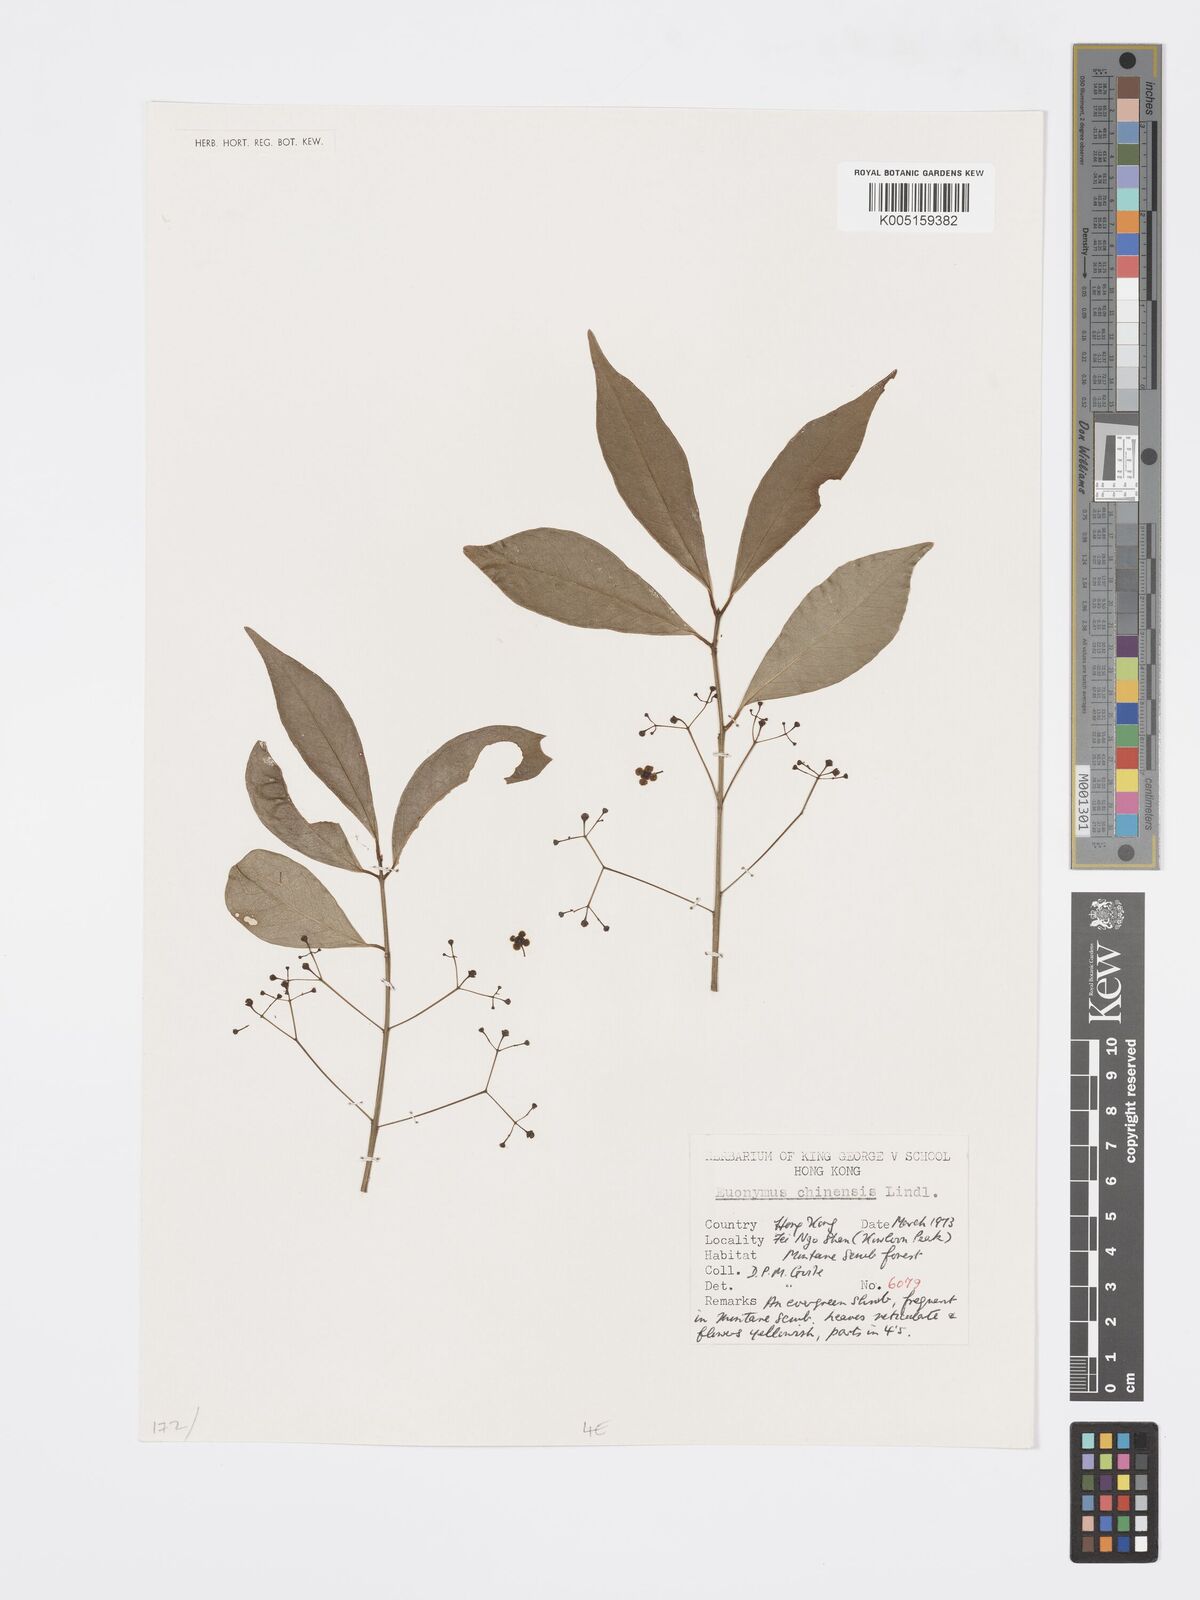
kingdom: Plantae
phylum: Tracheophyta
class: Magnoliopsida
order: Celastrales
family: Celastraceae
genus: Euonymus
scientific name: Euonymus nitidus
